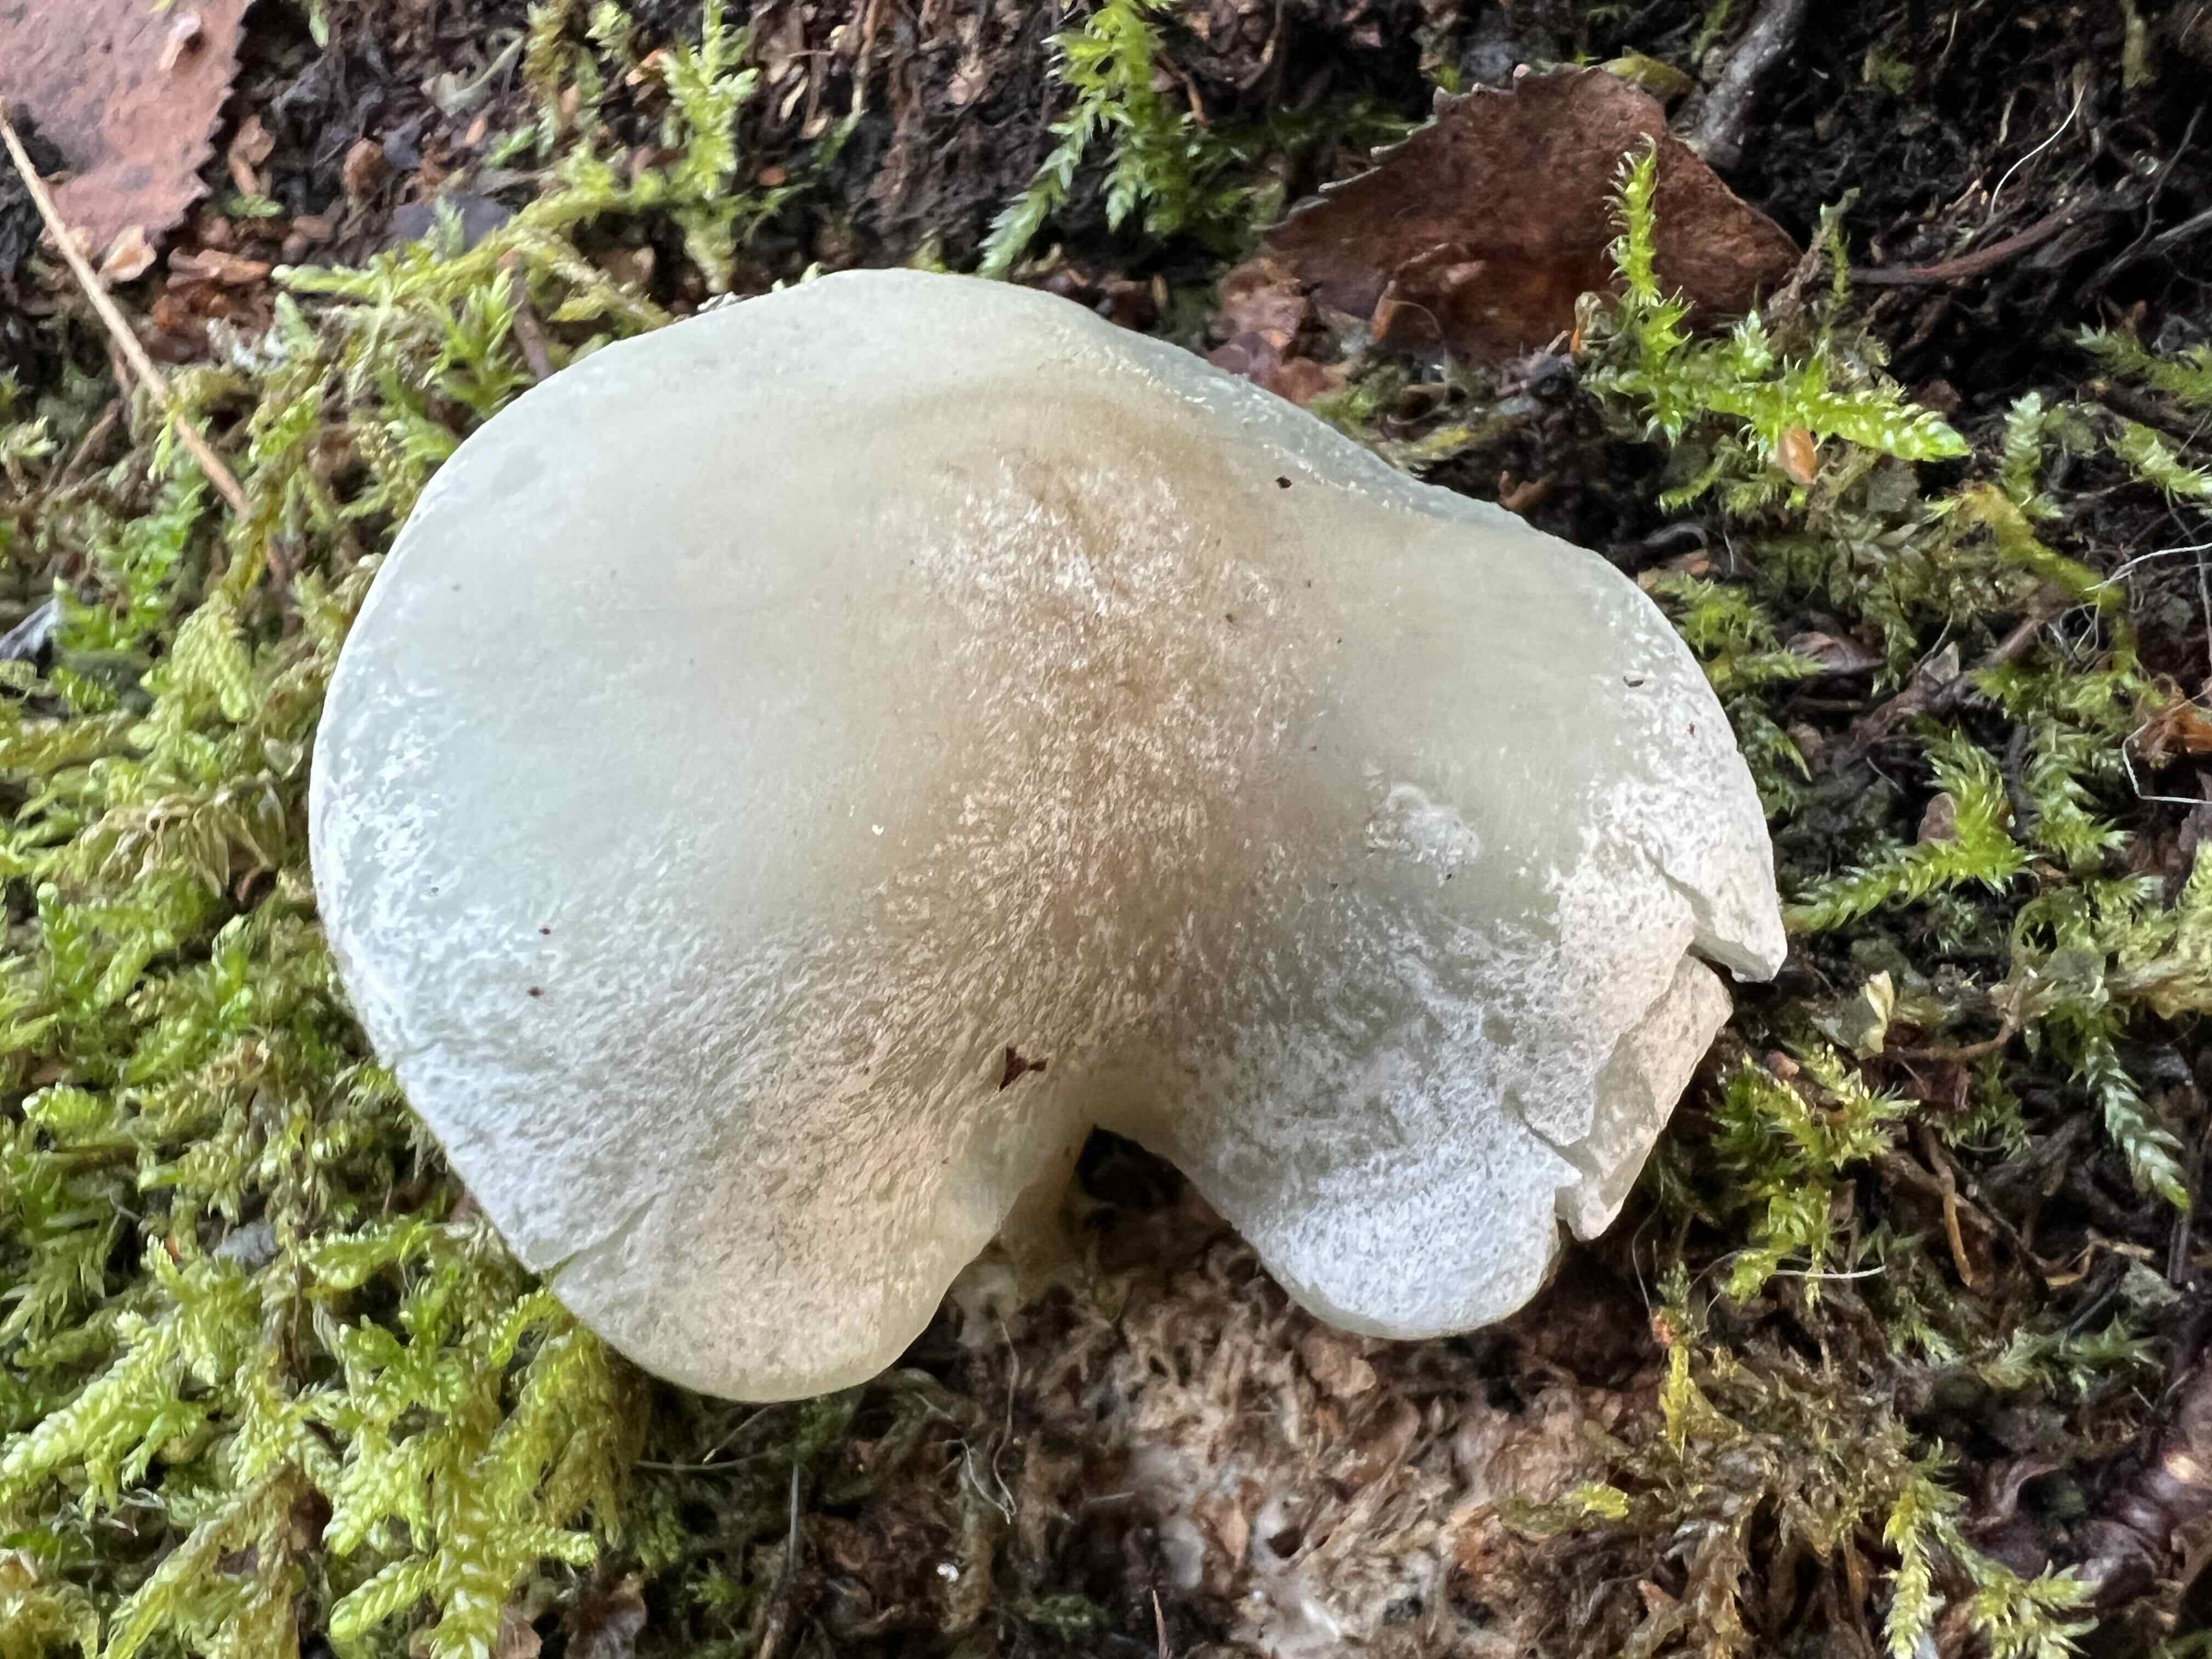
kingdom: Fungi
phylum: Basidiomycota
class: Agaricomycetes
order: Agaricales
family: Tricholomataceae
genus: Clitocybe
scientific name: Clitocybe odora
